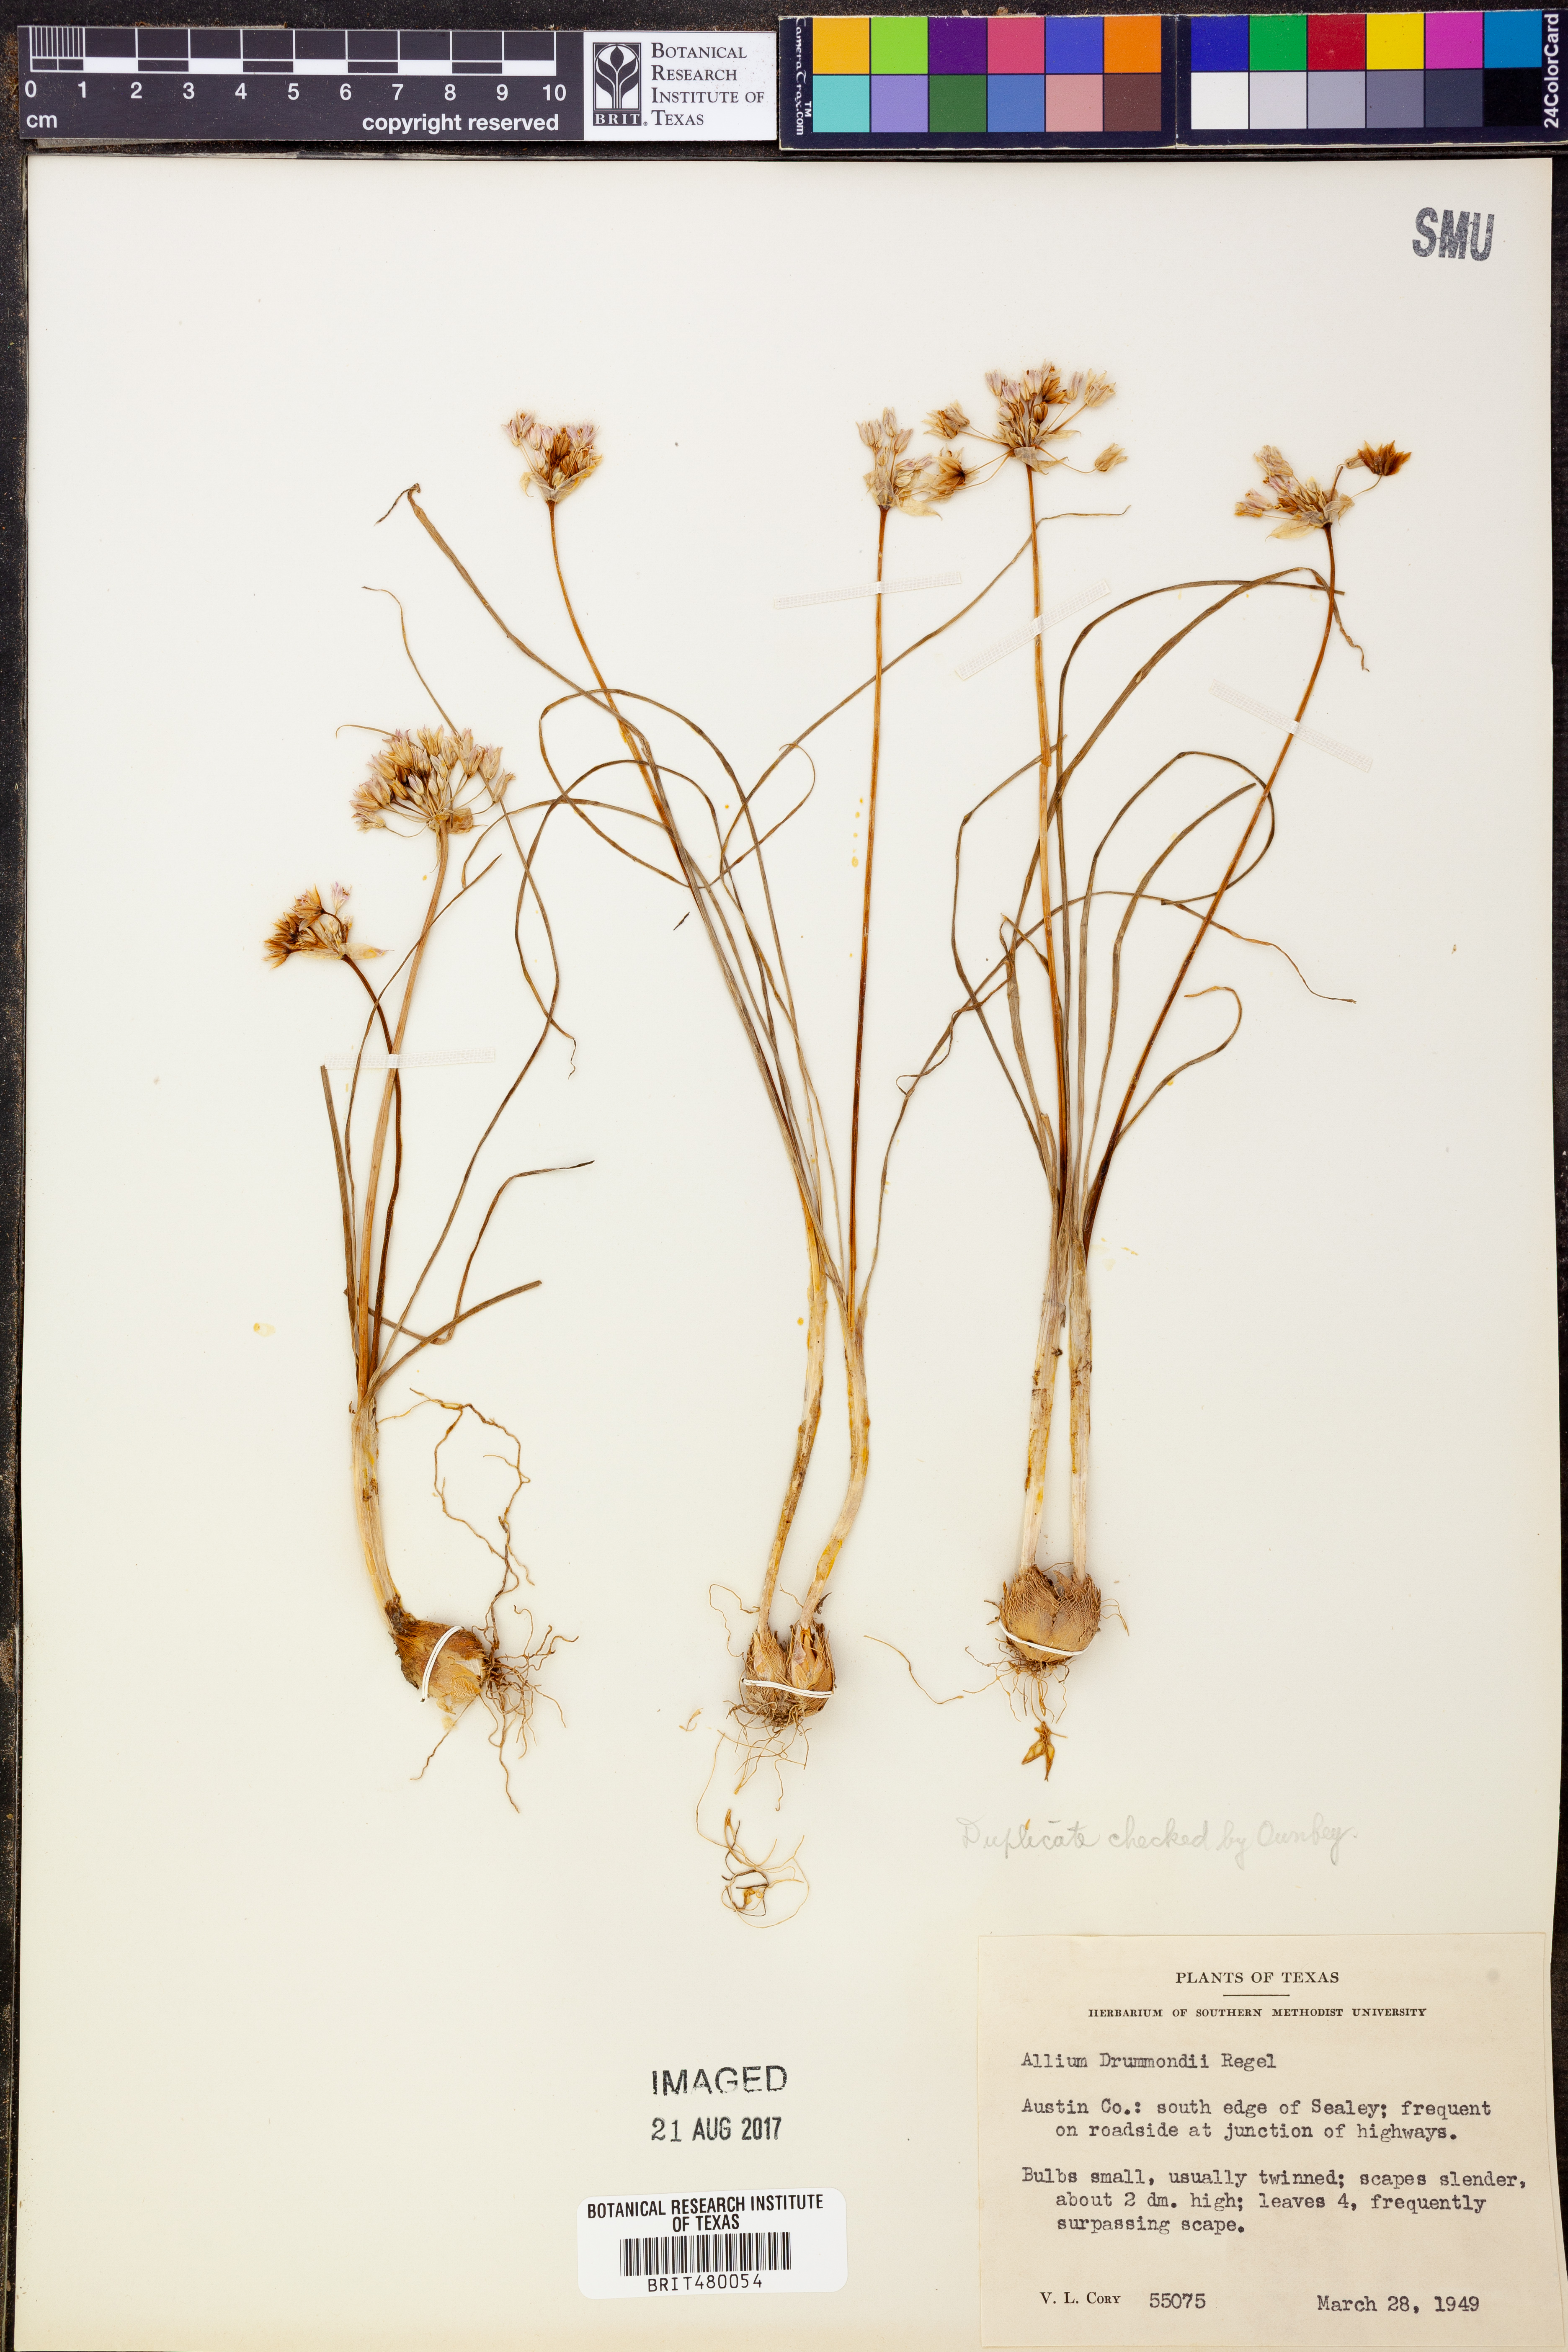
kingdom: Plantae
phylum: Tracheophyta
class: Liliopsida
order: Asparagales
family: Amaryllidaceae
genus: Allium
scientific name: Allium drummondii
